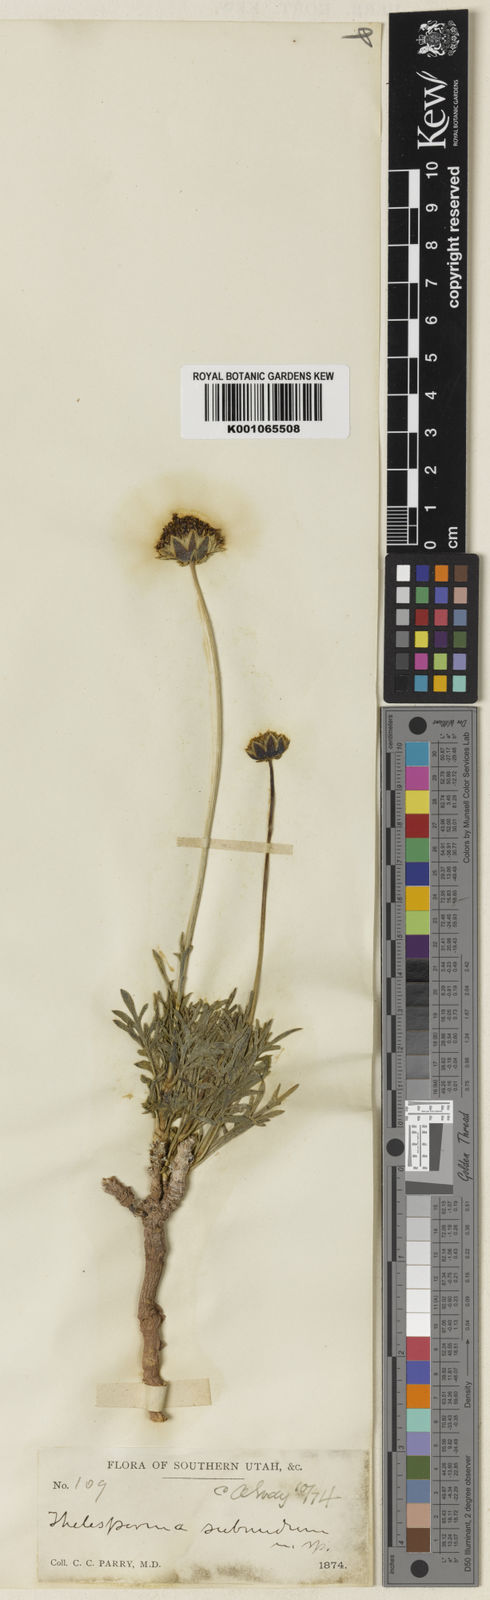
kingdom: Plantae
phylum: Tracheophyta
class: Magnoliopsida
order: Asterales
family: Asteraceae
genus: Thelesperma
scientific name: Thelesperma subnudum
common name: Navajo tea
